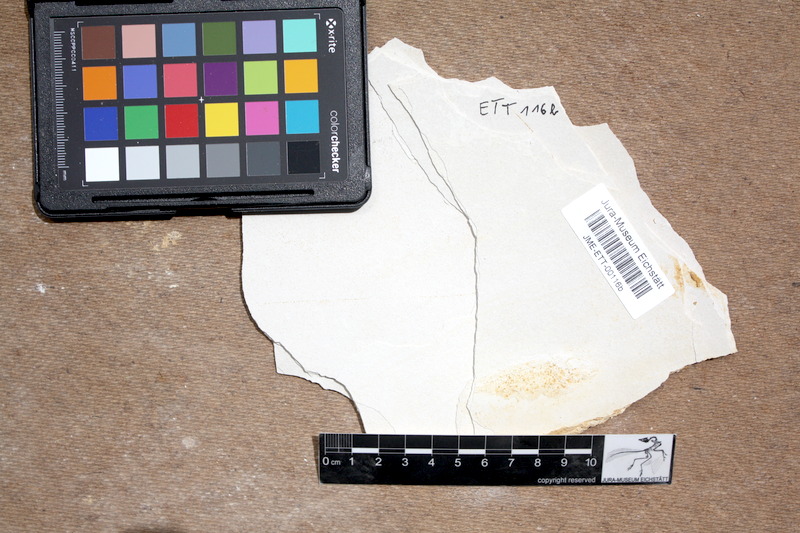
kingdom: Animalia
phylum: Chordata
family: Macrosemiidae
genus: Notagogus
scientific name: Notagogus denticulatus
